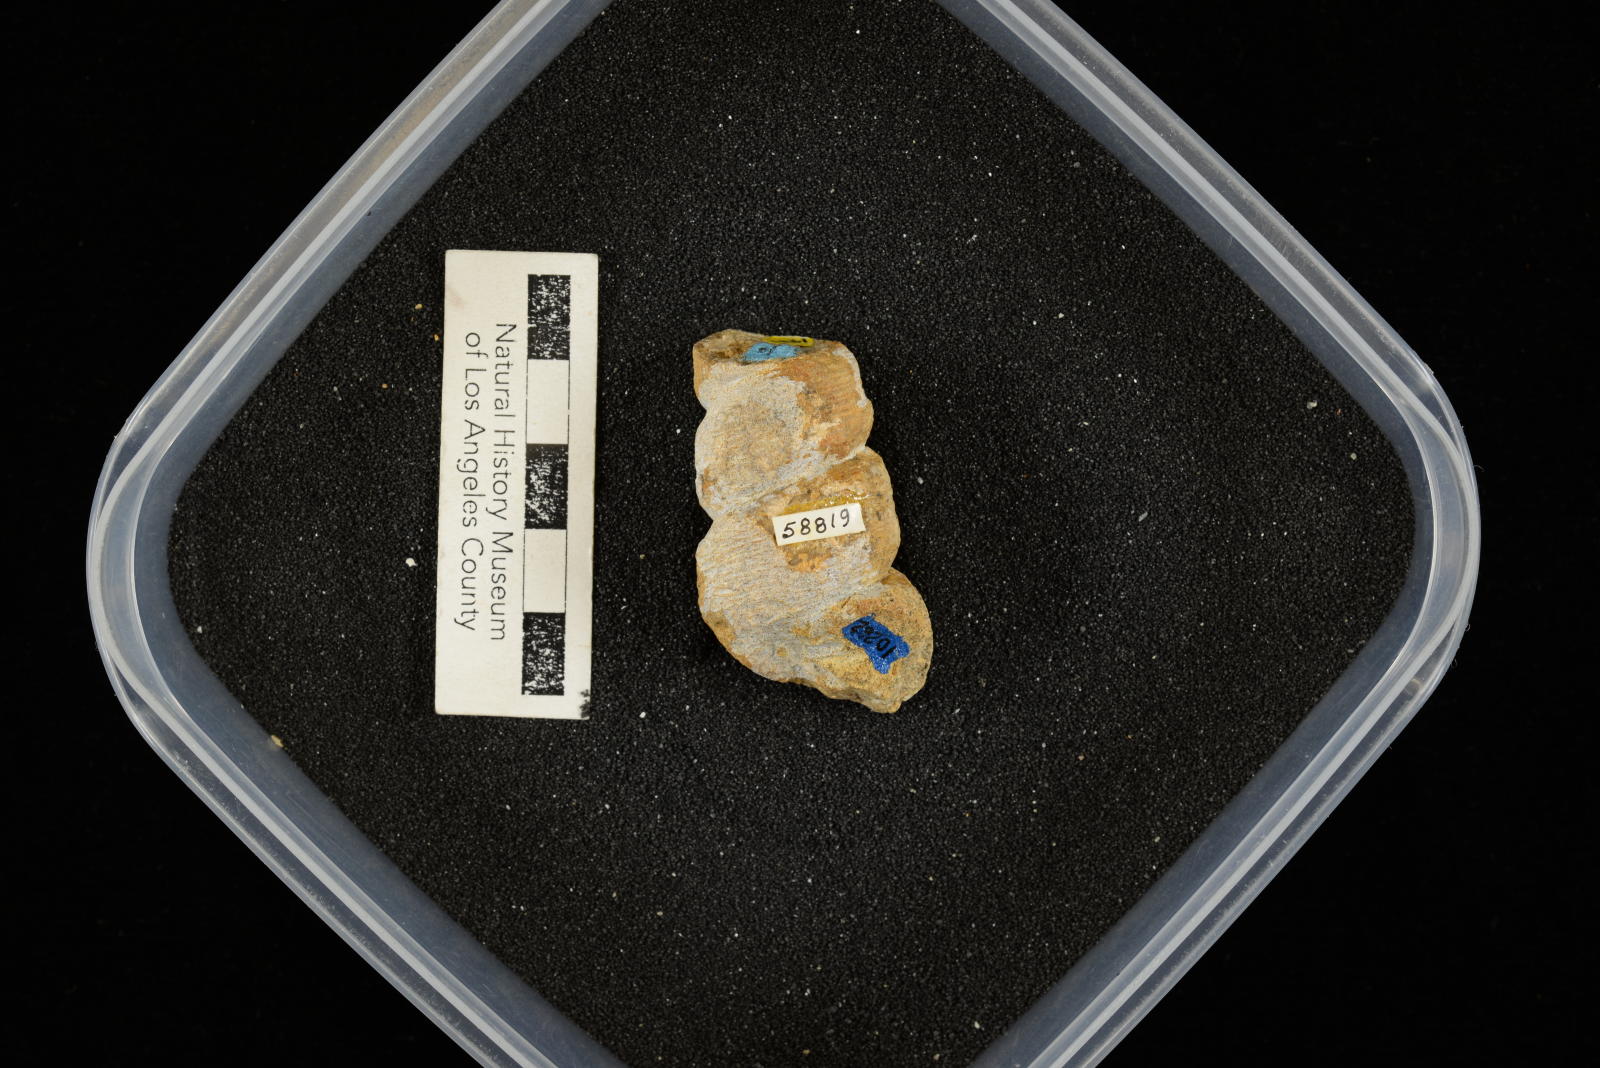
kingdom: Animalia
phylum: Mollusca
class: Gastropoda
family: Turritellidae
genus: Turritella
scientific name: Turritella chaneyi
